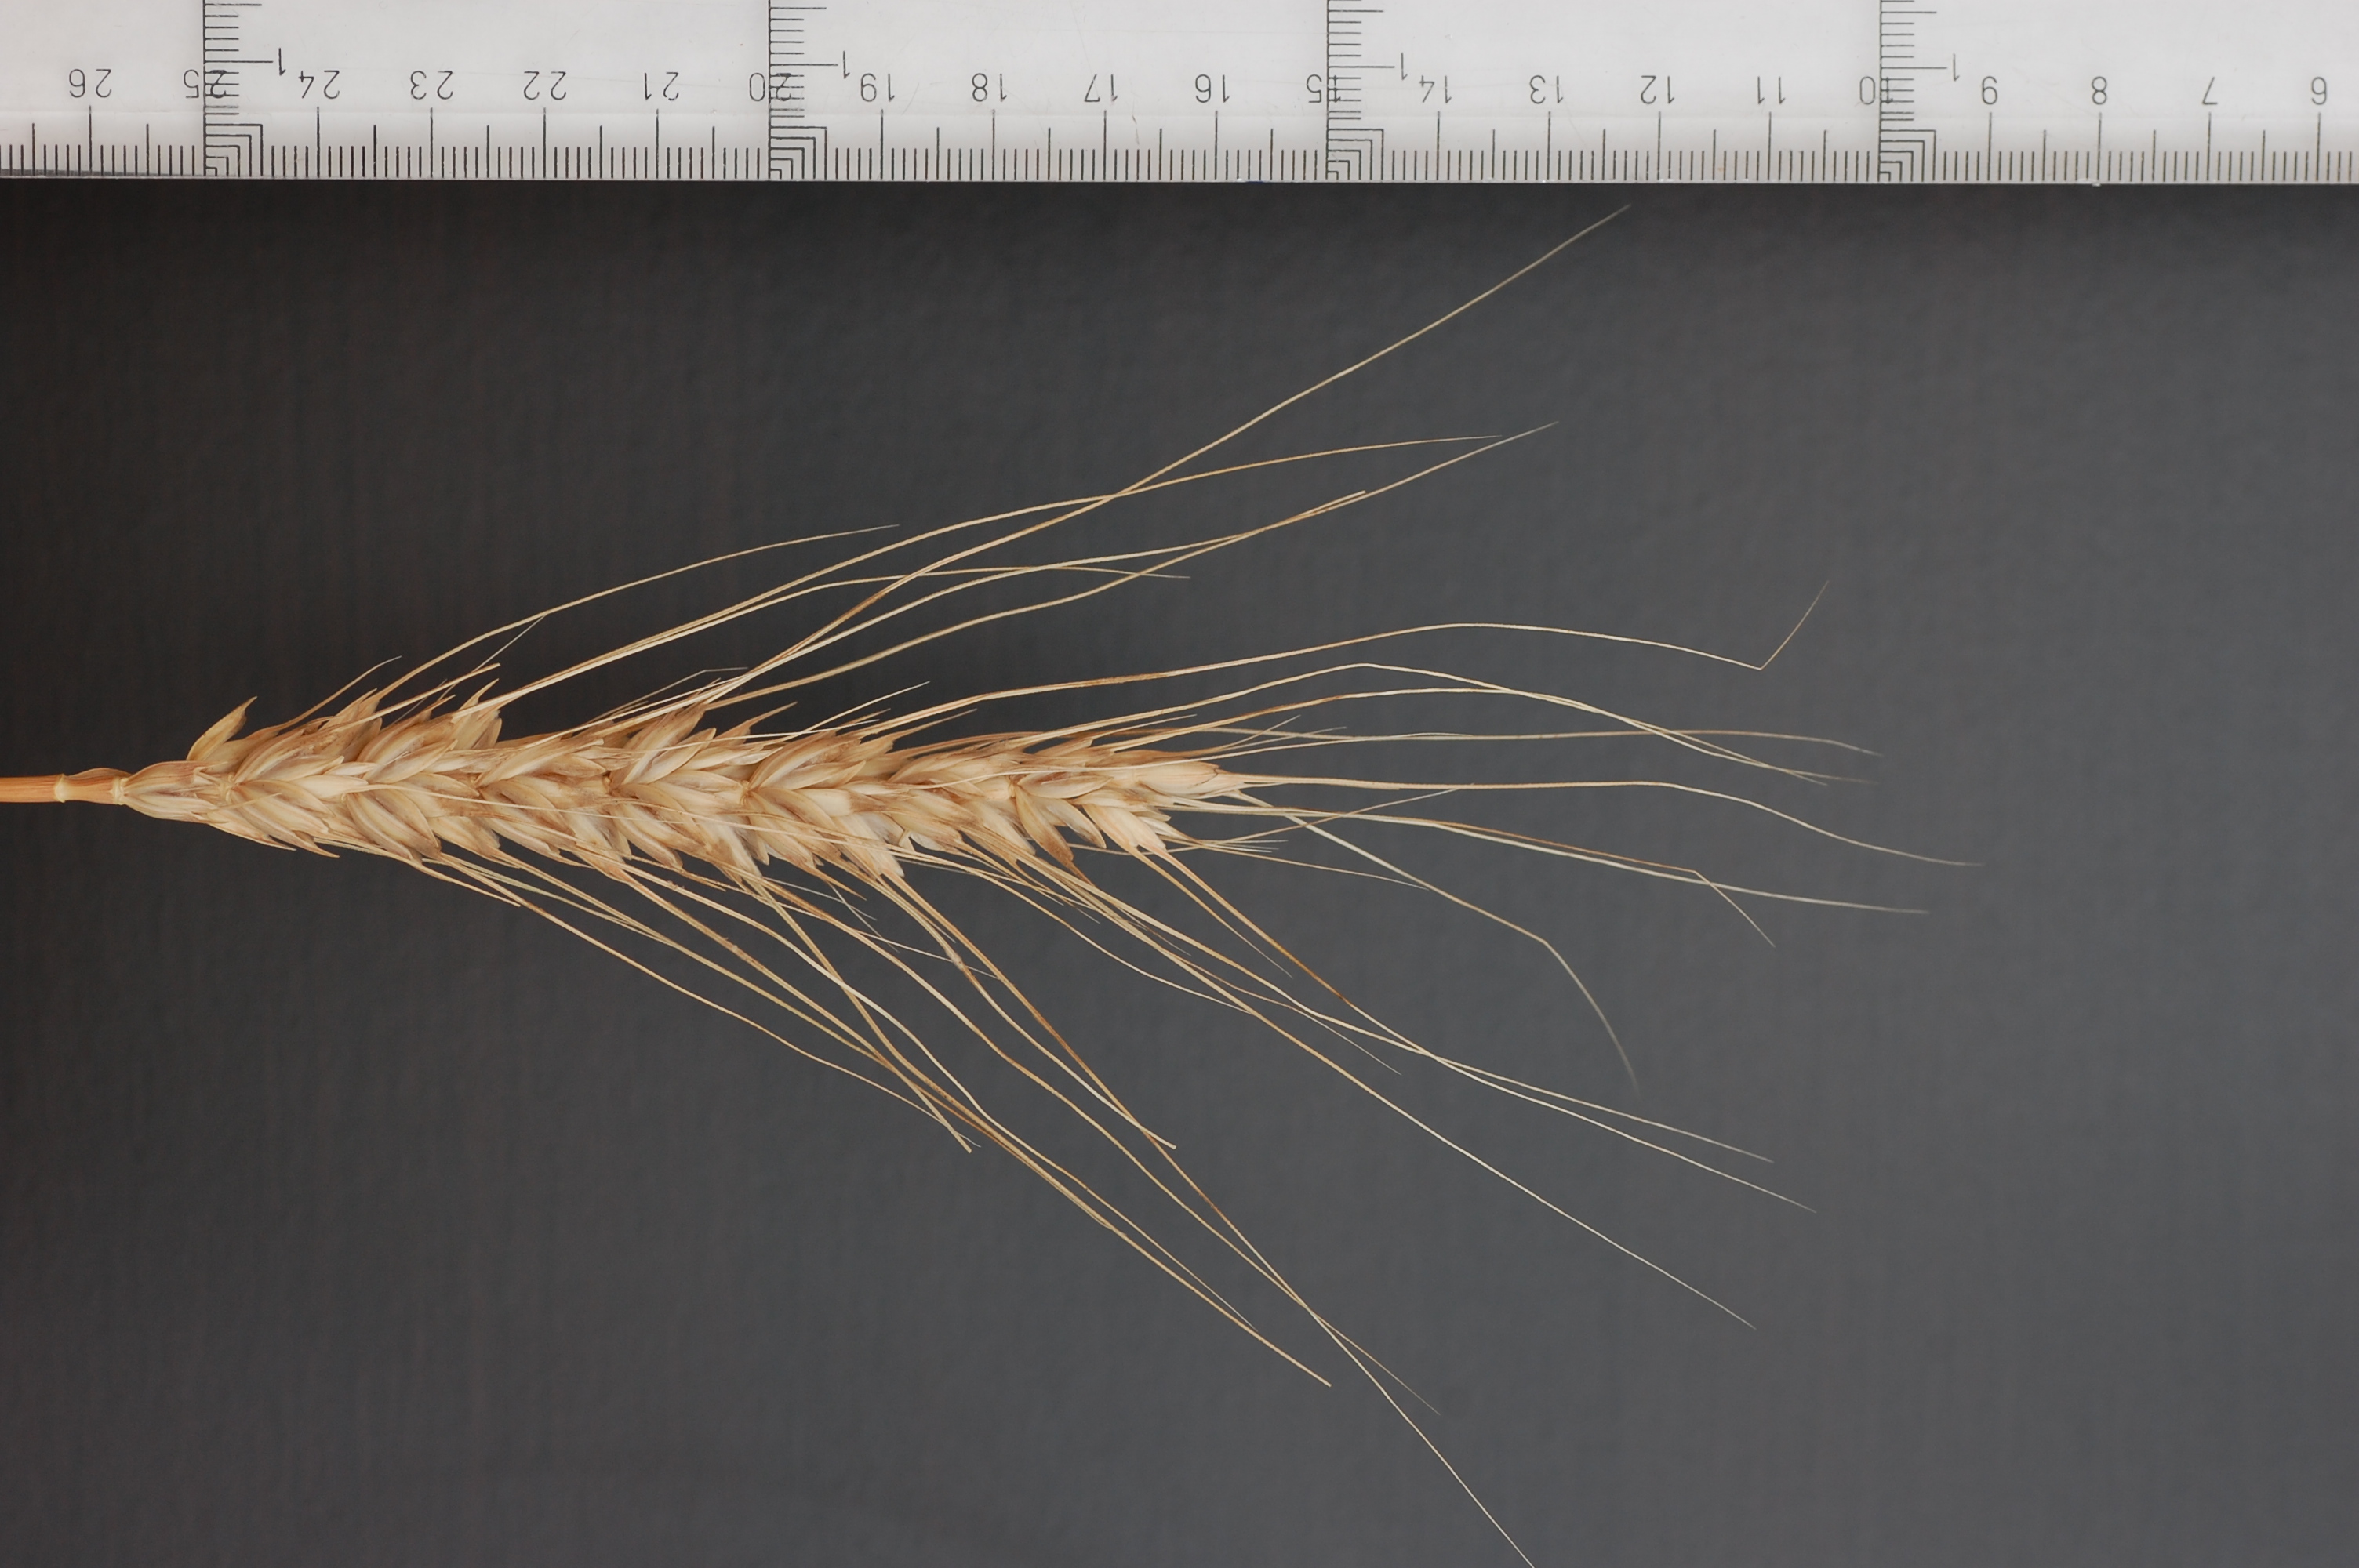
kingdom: Plantae
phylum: Tracheophyta
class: Liliopsida
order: Poales
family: Poaceae
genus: Triticum
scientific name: Triticum aestivum
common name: Common wheat
